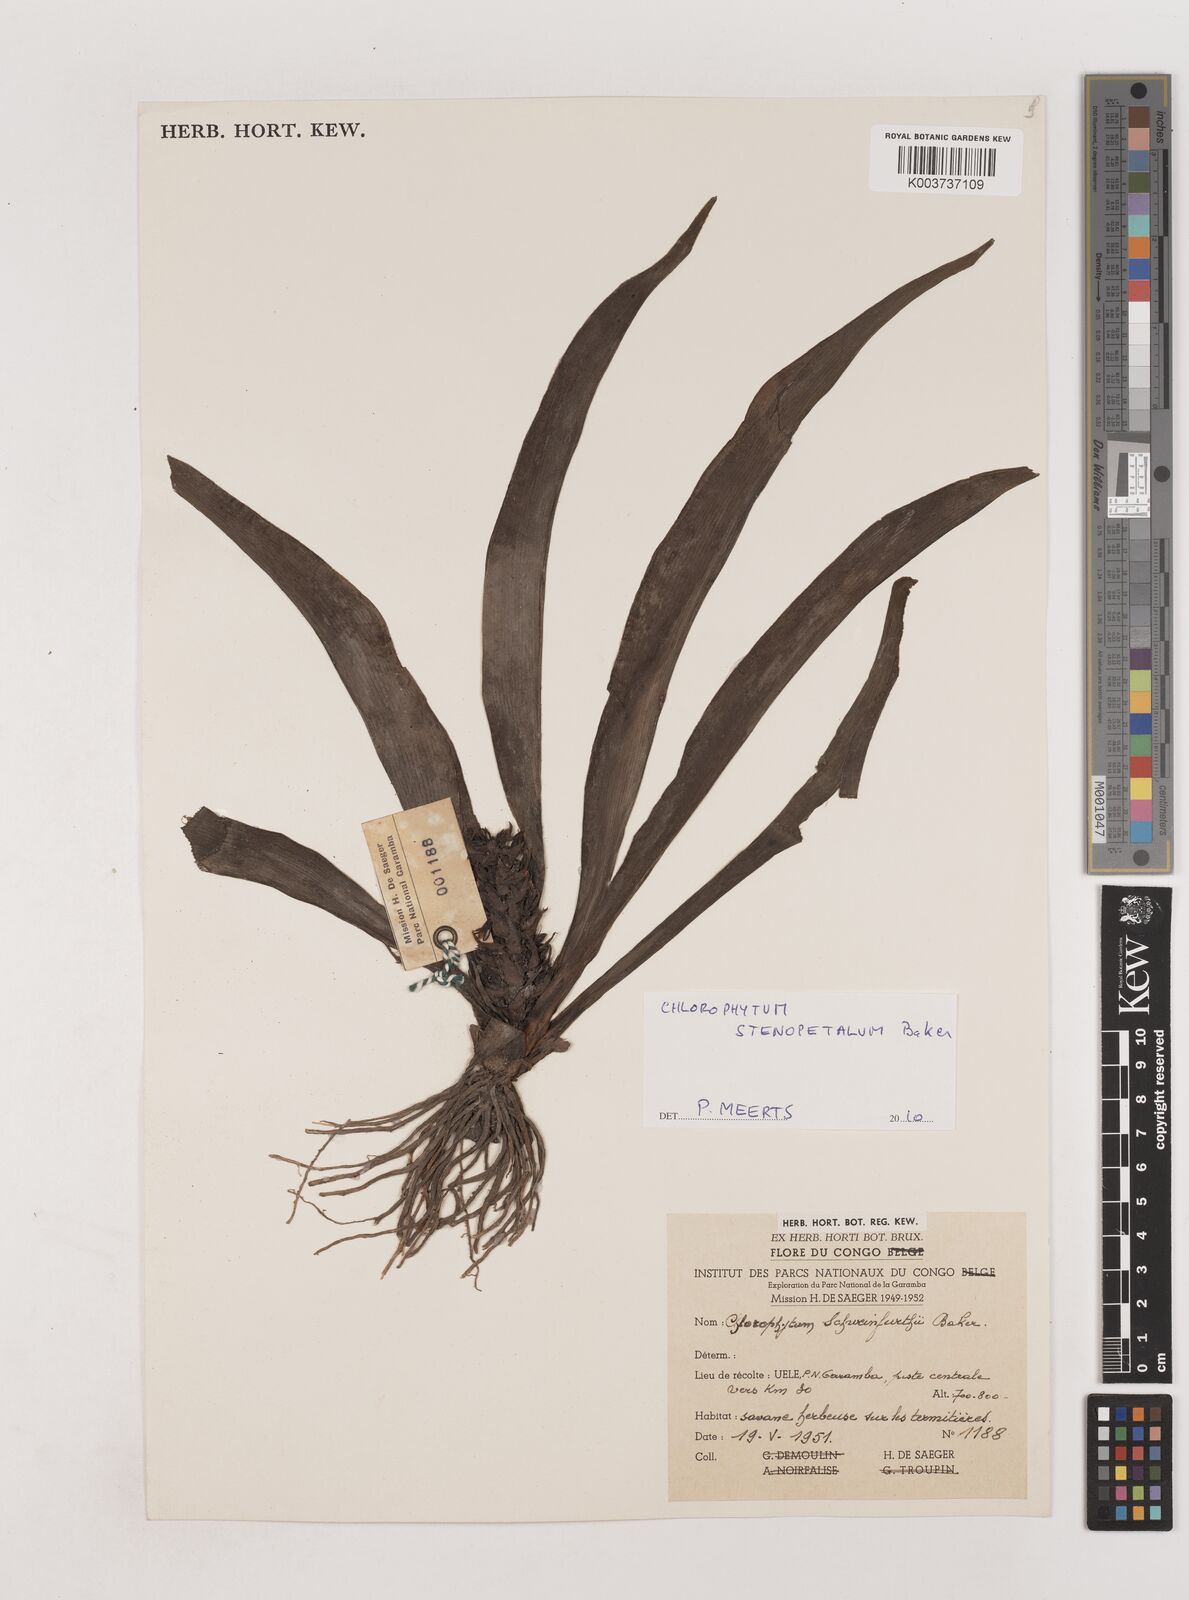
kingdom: Plantae
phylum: Tracheophyta
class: Liliopsida
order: Asparagales
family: Asparagaceae
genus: Chlorophytum
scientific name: Chlorophytum stenopetalum
